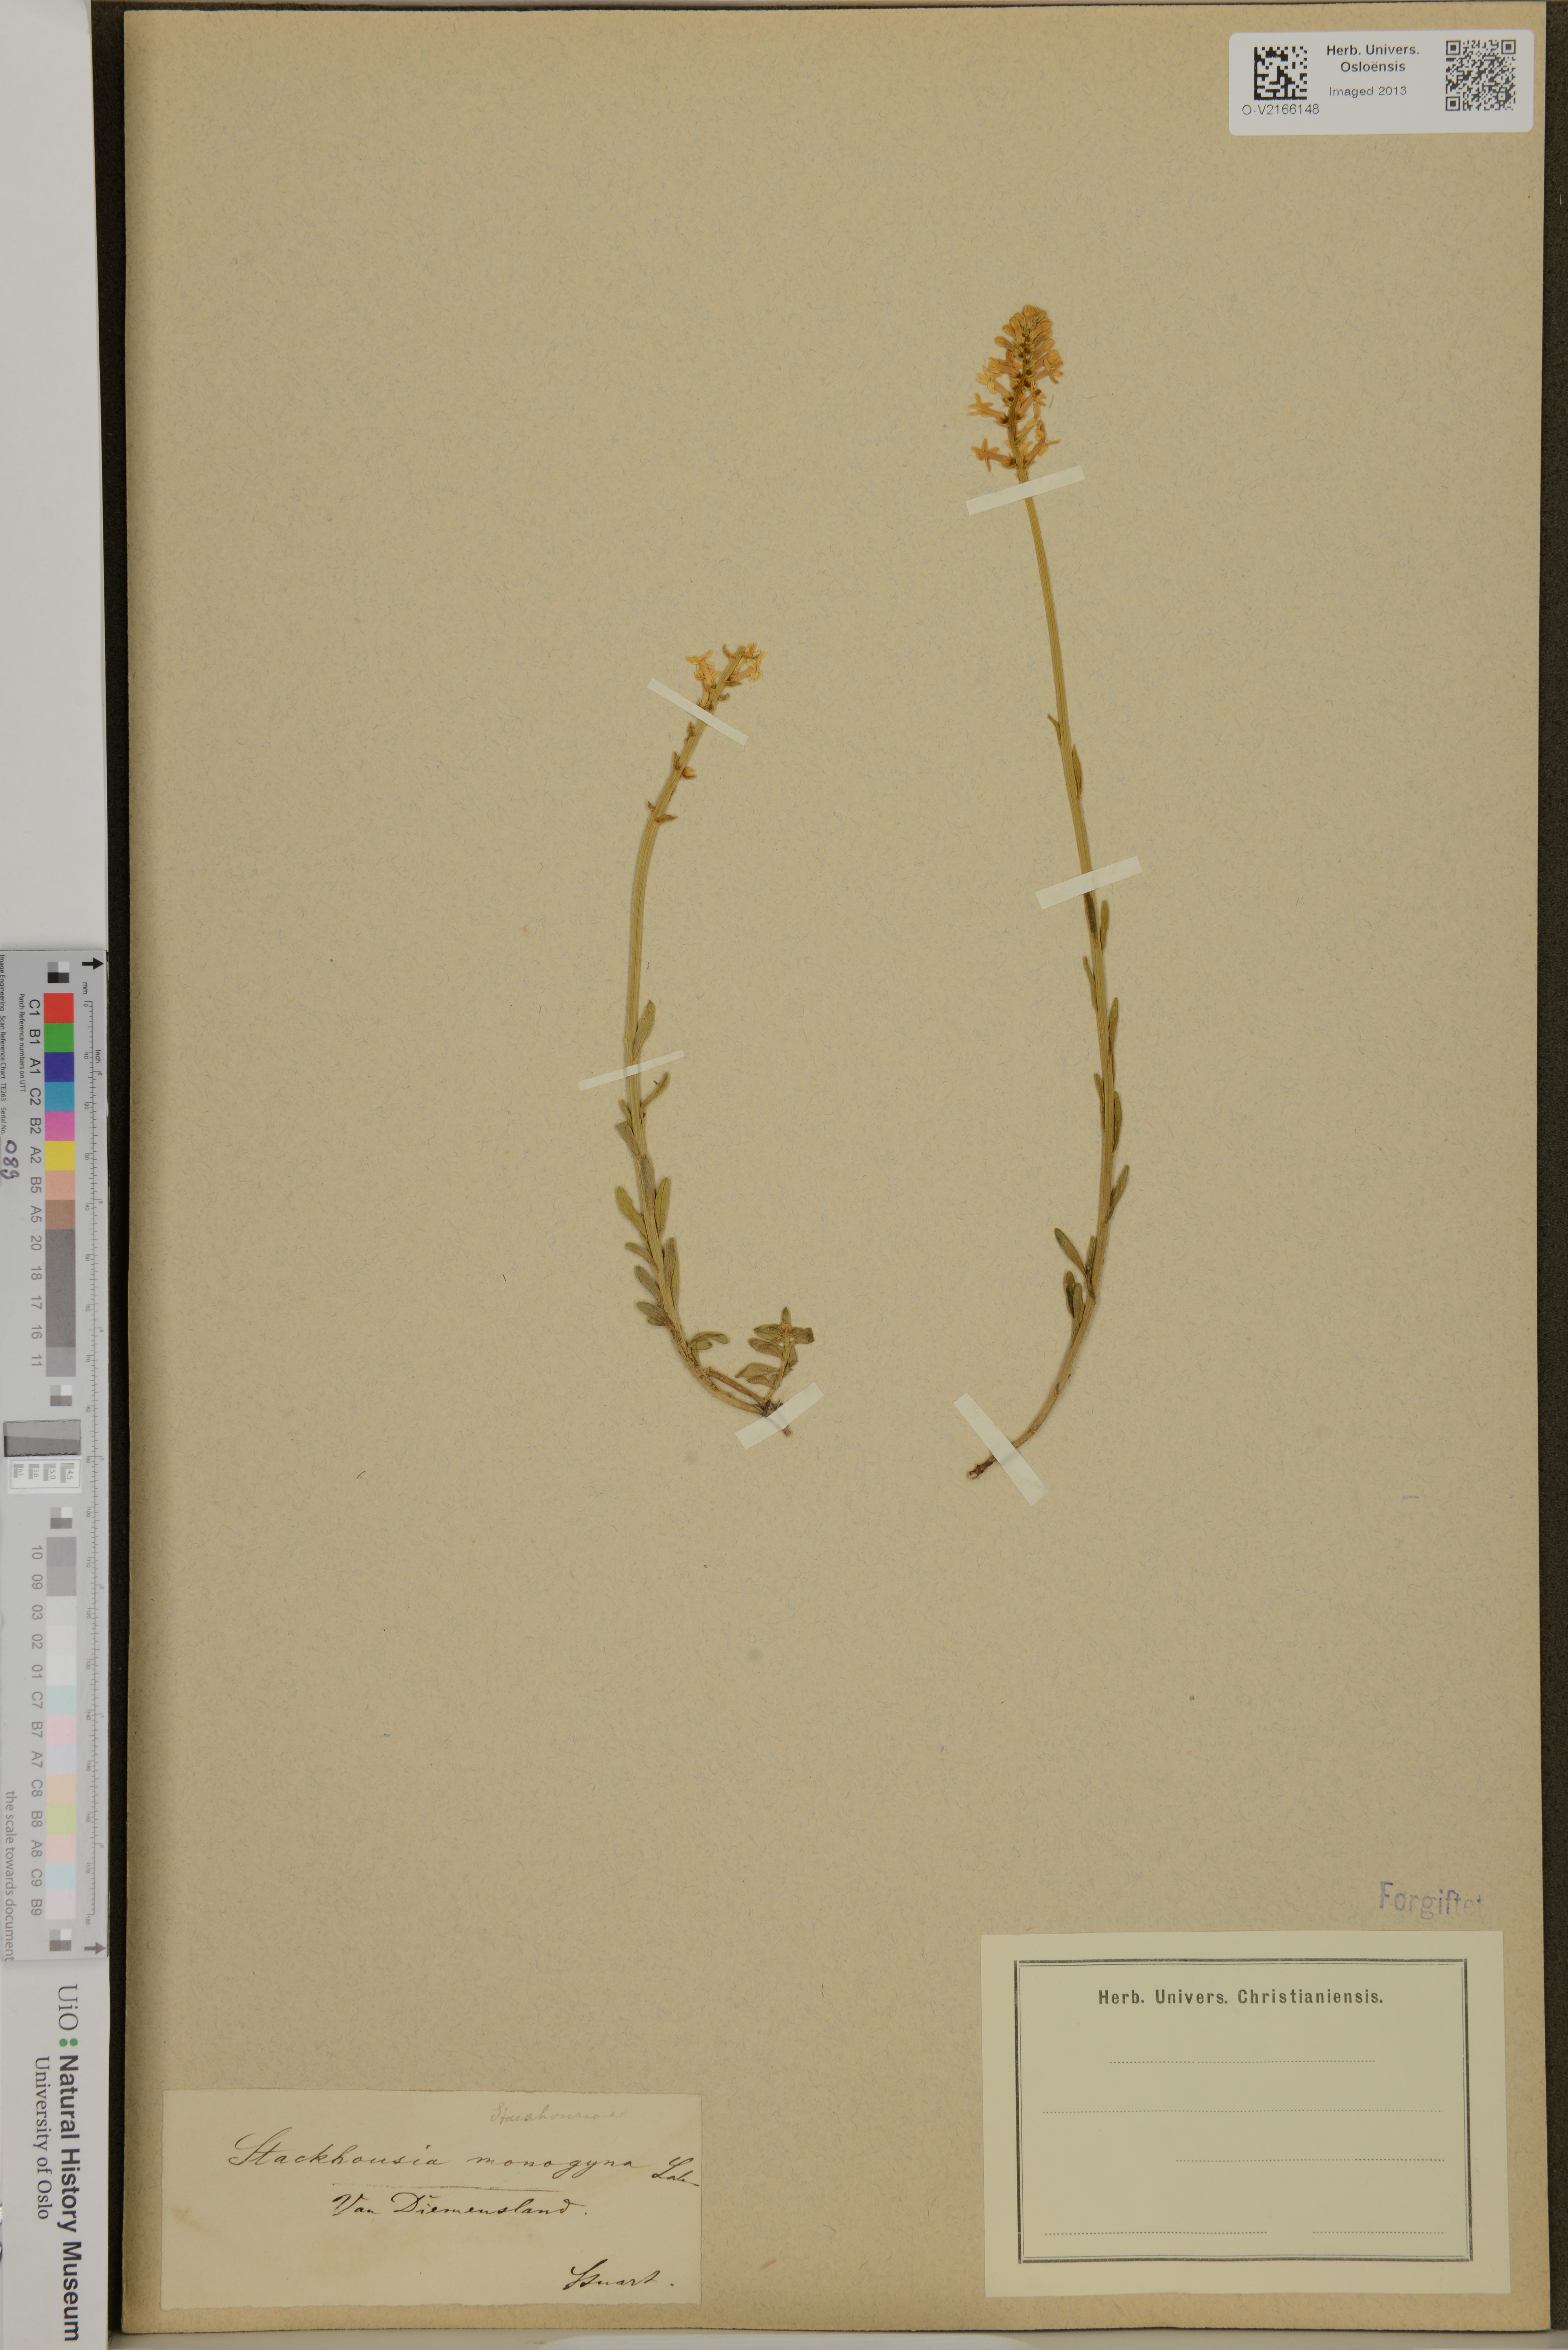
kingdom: Plantae
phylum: Tracheophyta
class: Magnoliopsida
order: Celastrales
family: Celastraceae
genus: Stackhousia
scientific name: Stackhousia monogyna
